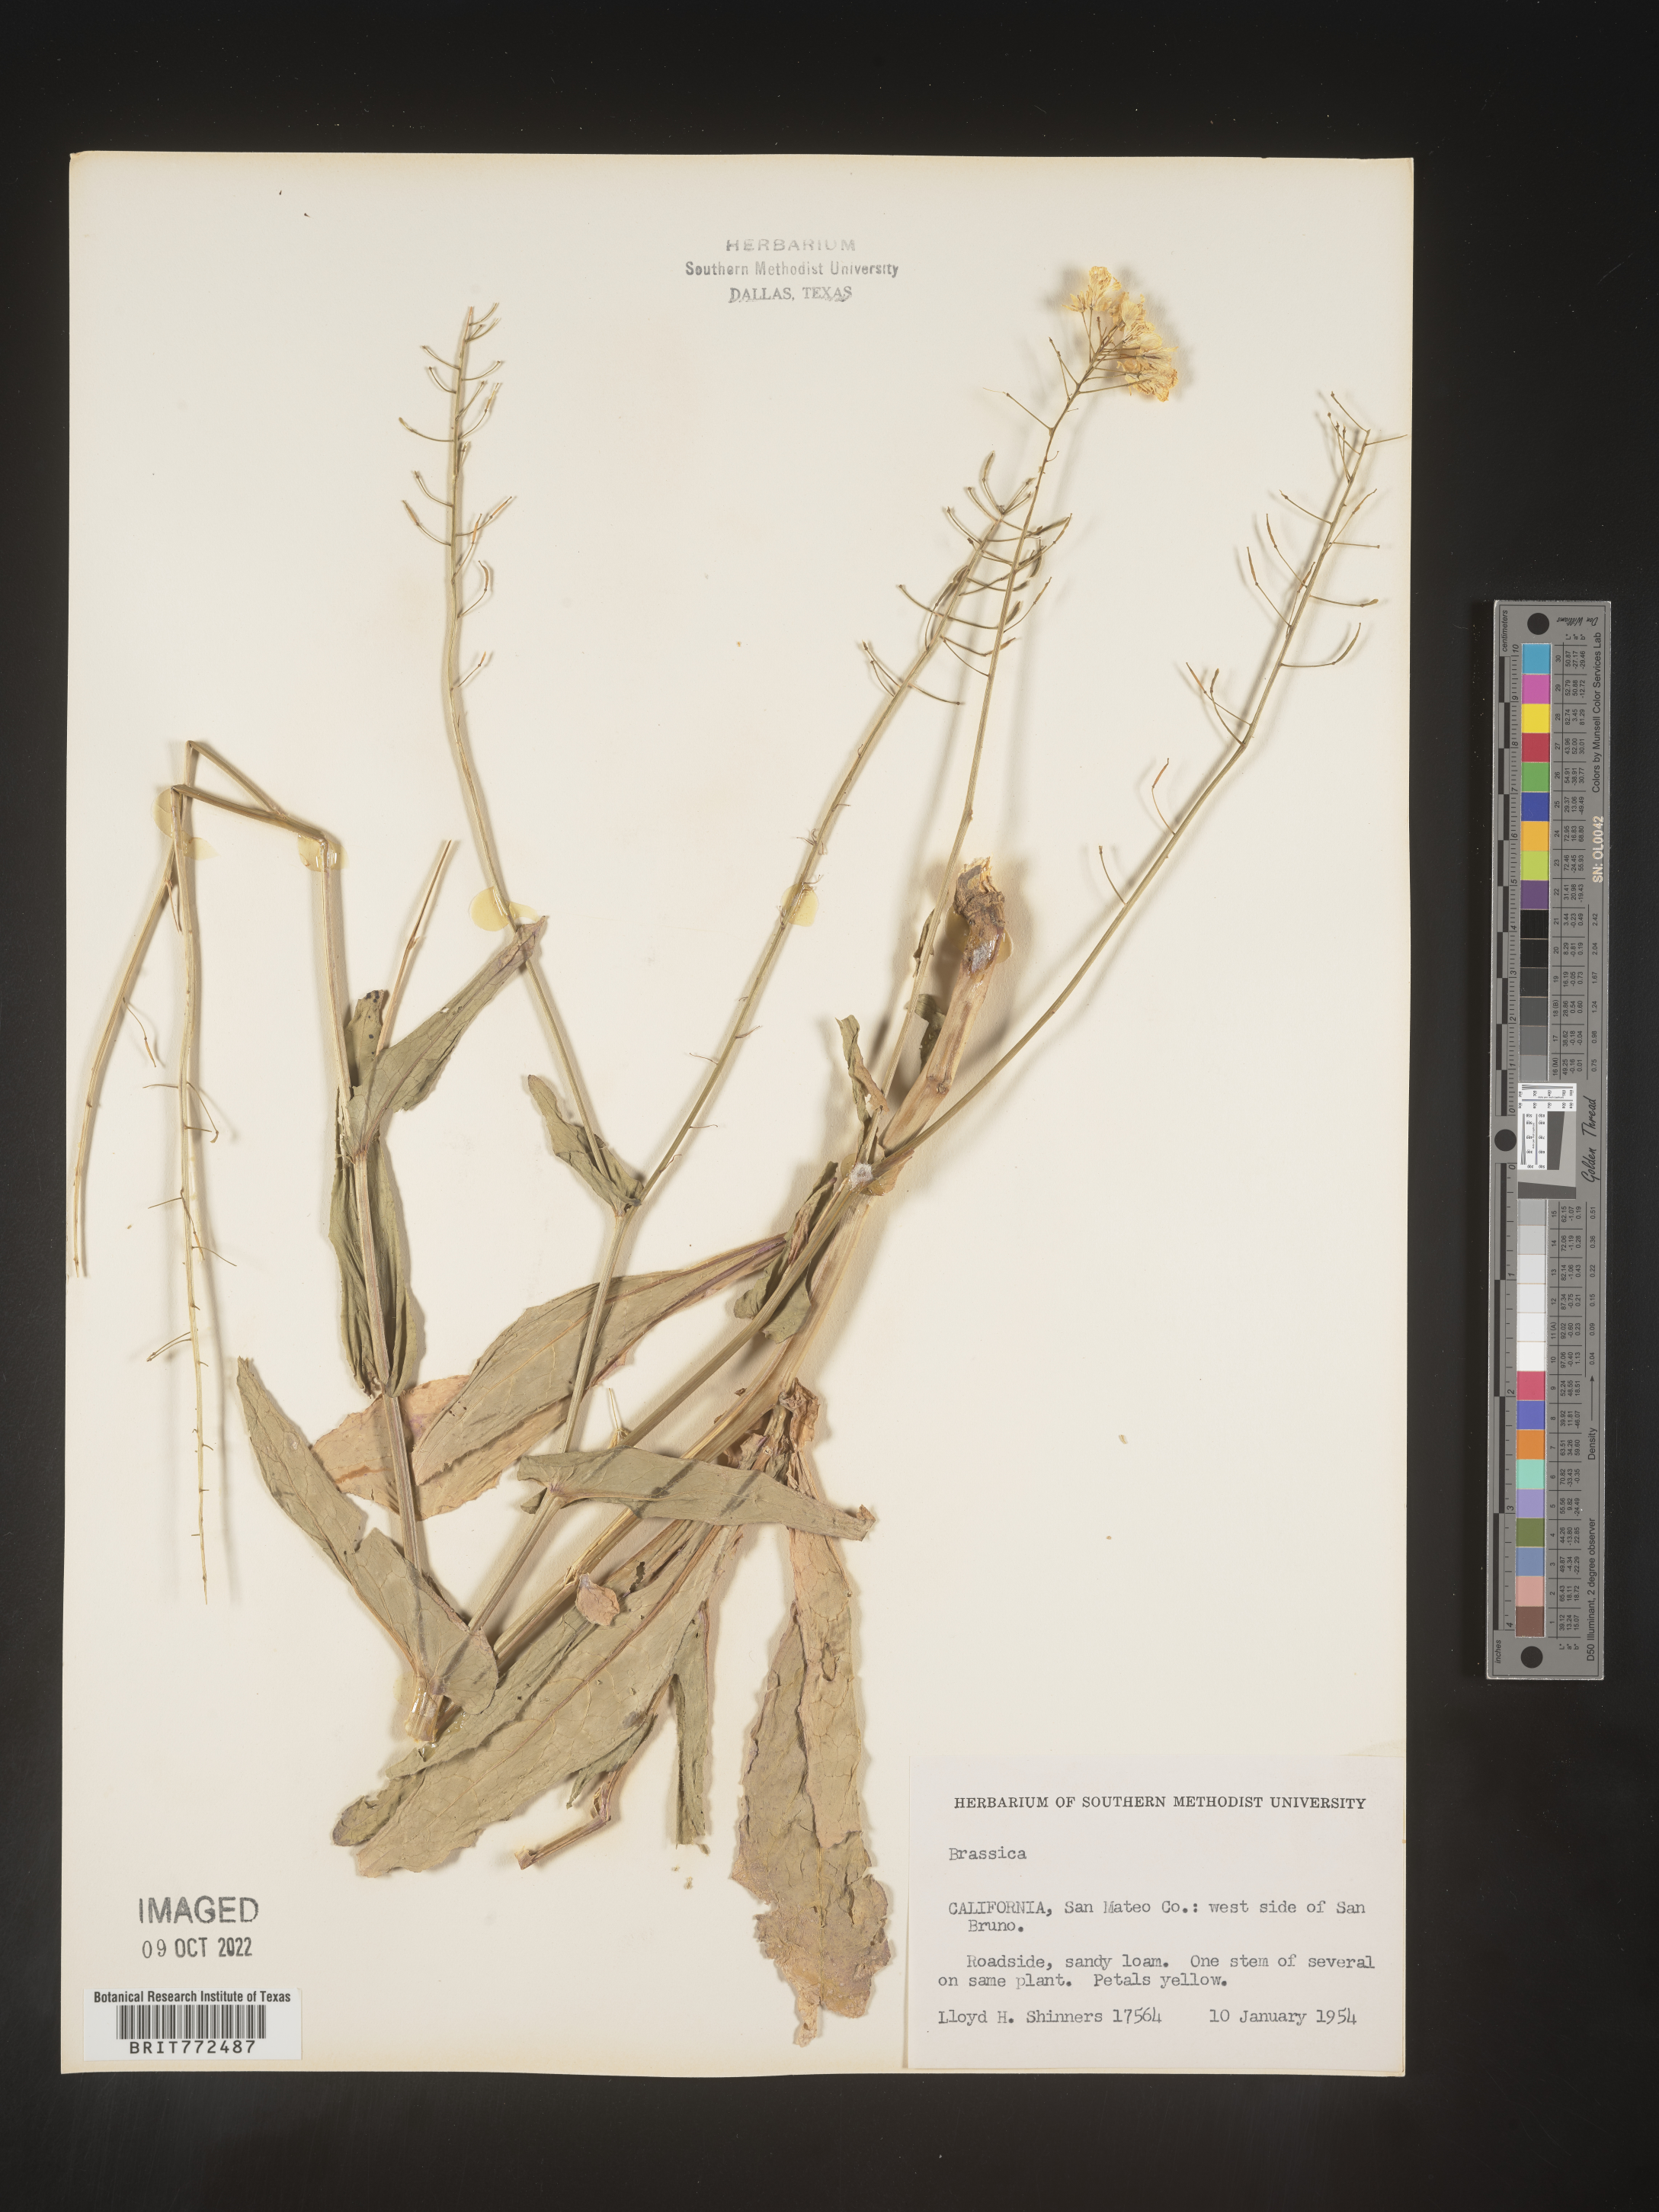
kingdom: Plantae
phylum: Tracheophyta
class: Magnoliopsida
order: Brassicales
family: Brassicaceae
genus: Brassica
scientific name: Brassica
